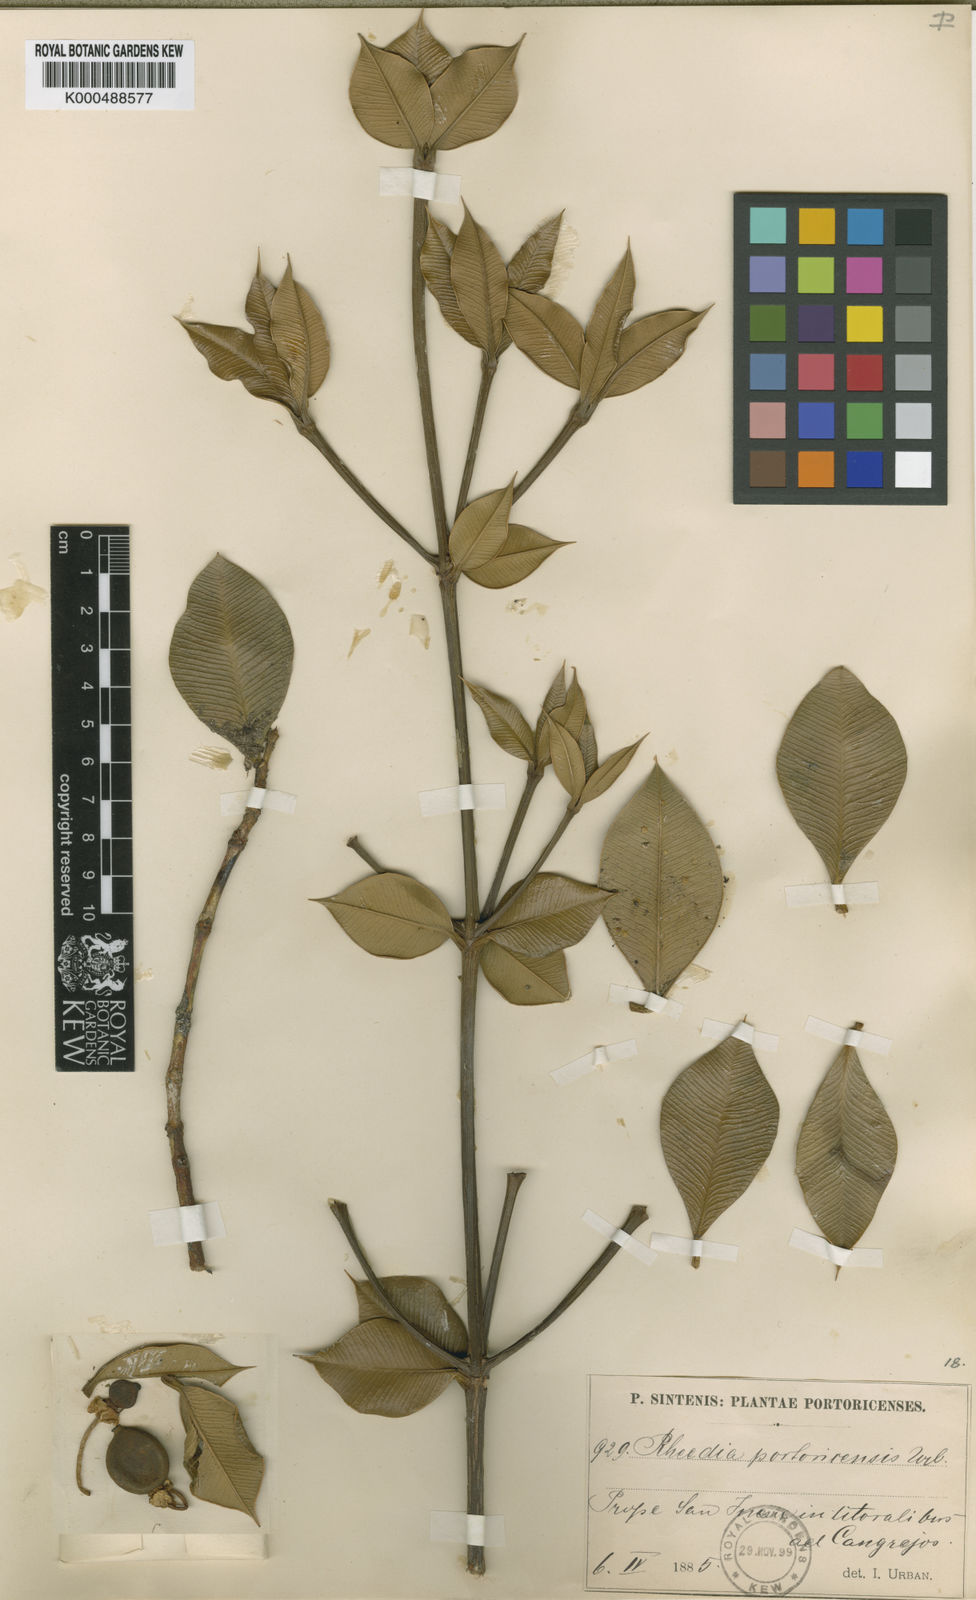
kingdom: Plantae
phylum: Tracheophyta
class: Magnoliopsida
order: Malpighiales
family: Clusiaceae
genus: Garcinia
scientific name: Garcinia
